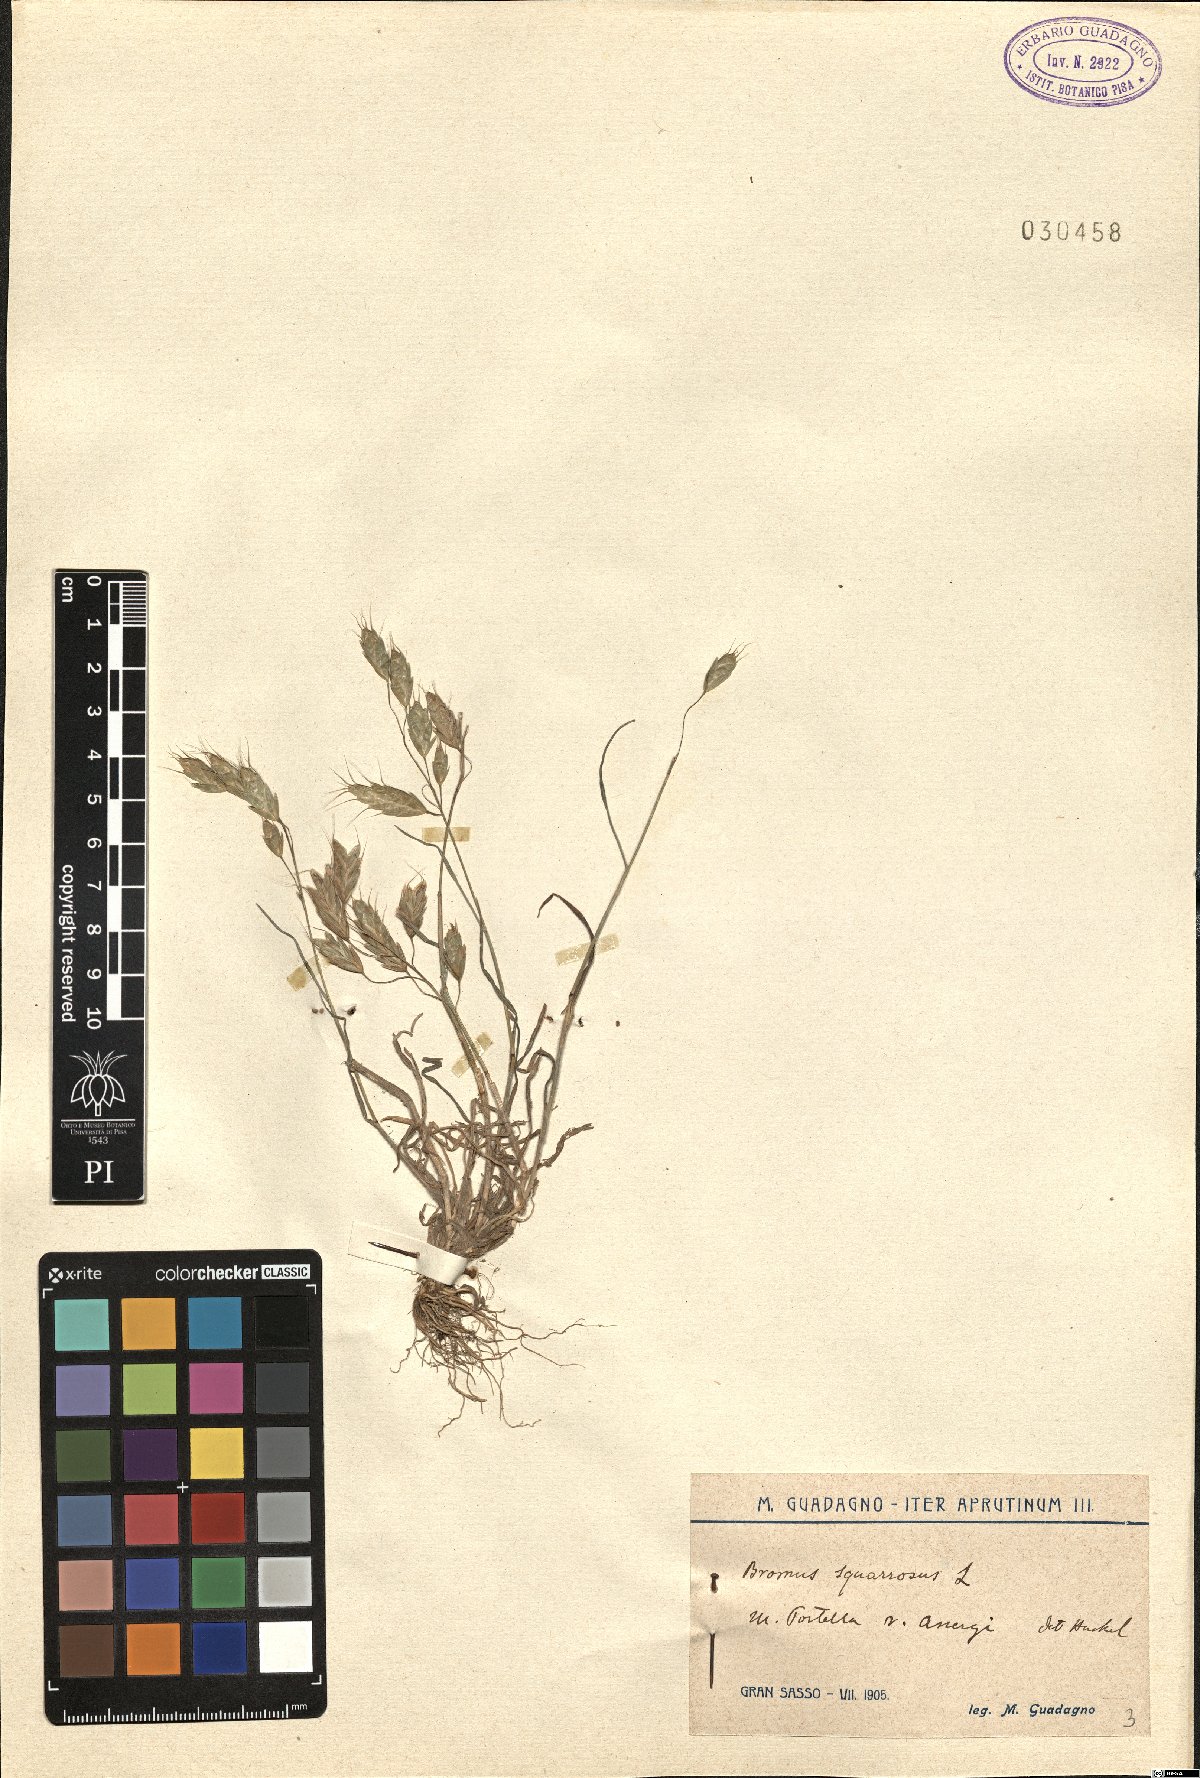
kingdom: Plantae
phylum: Tracheophyta
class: Liliopsida
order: Poales
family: Poaceae
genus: Bromus
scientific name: Bromus squarrosus
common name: Corn brome
